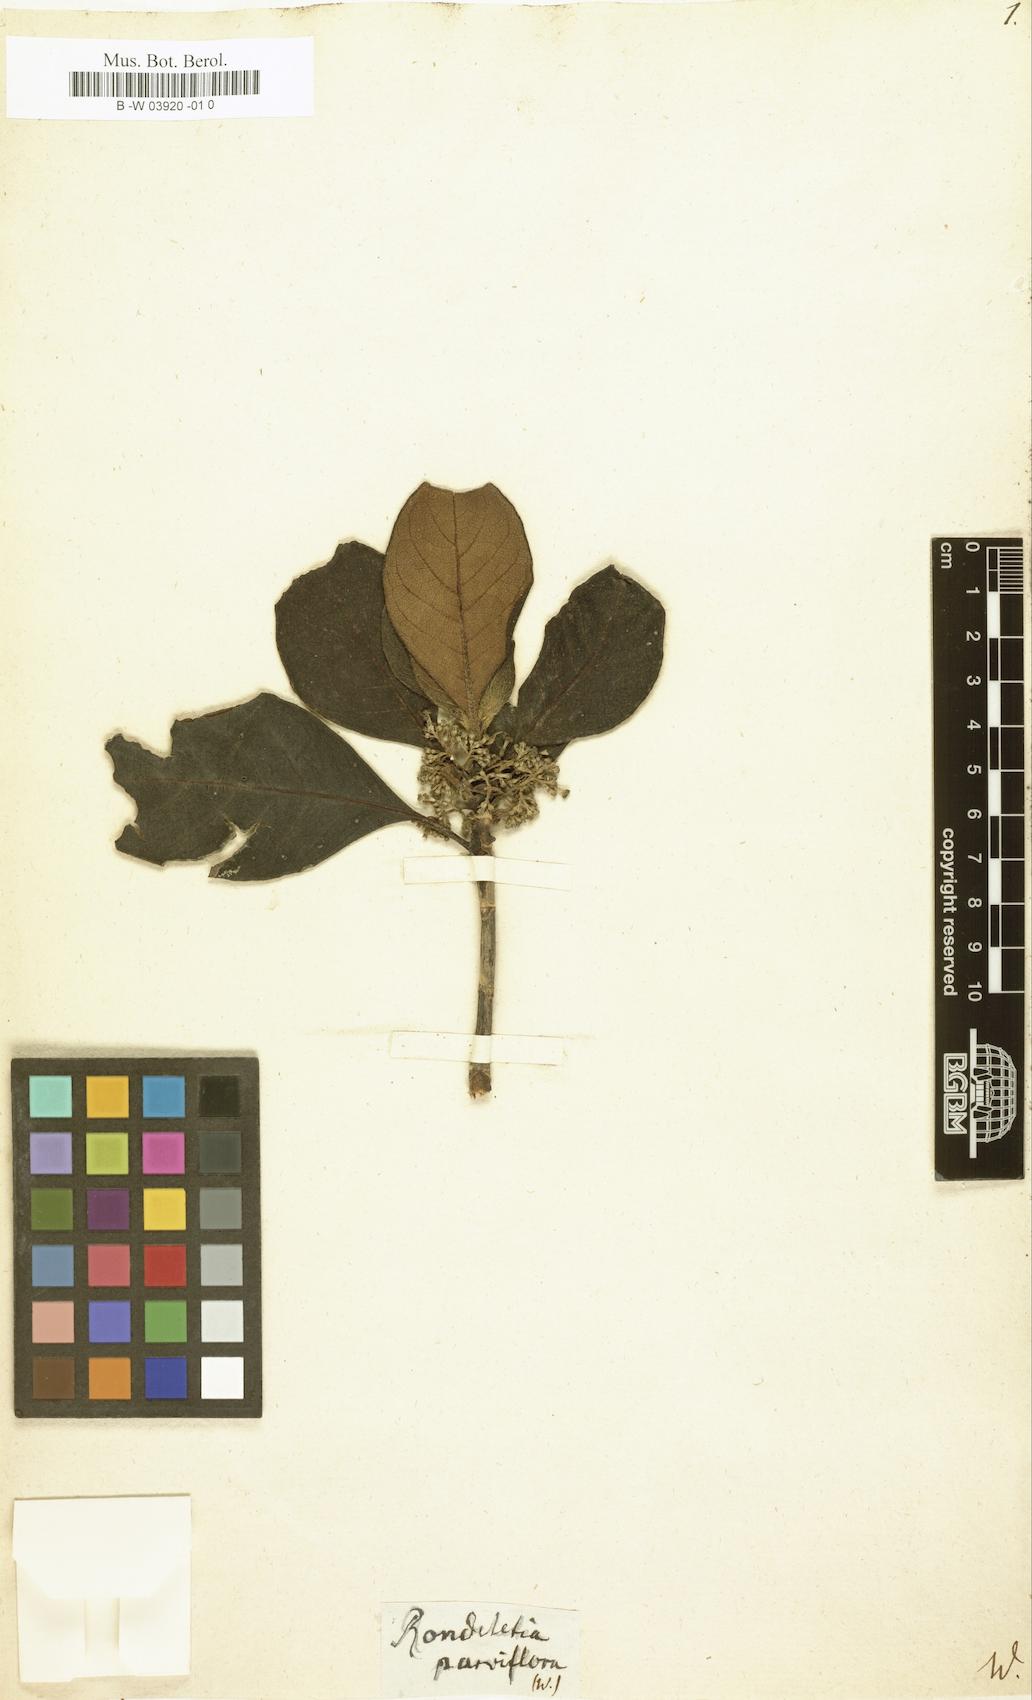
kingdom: Plantae
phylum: Tracheophyta
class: Magnoliopsida
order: Gentianales
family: Rubiaceae
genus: Rondeletia
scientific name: Rondeletia parviflora
